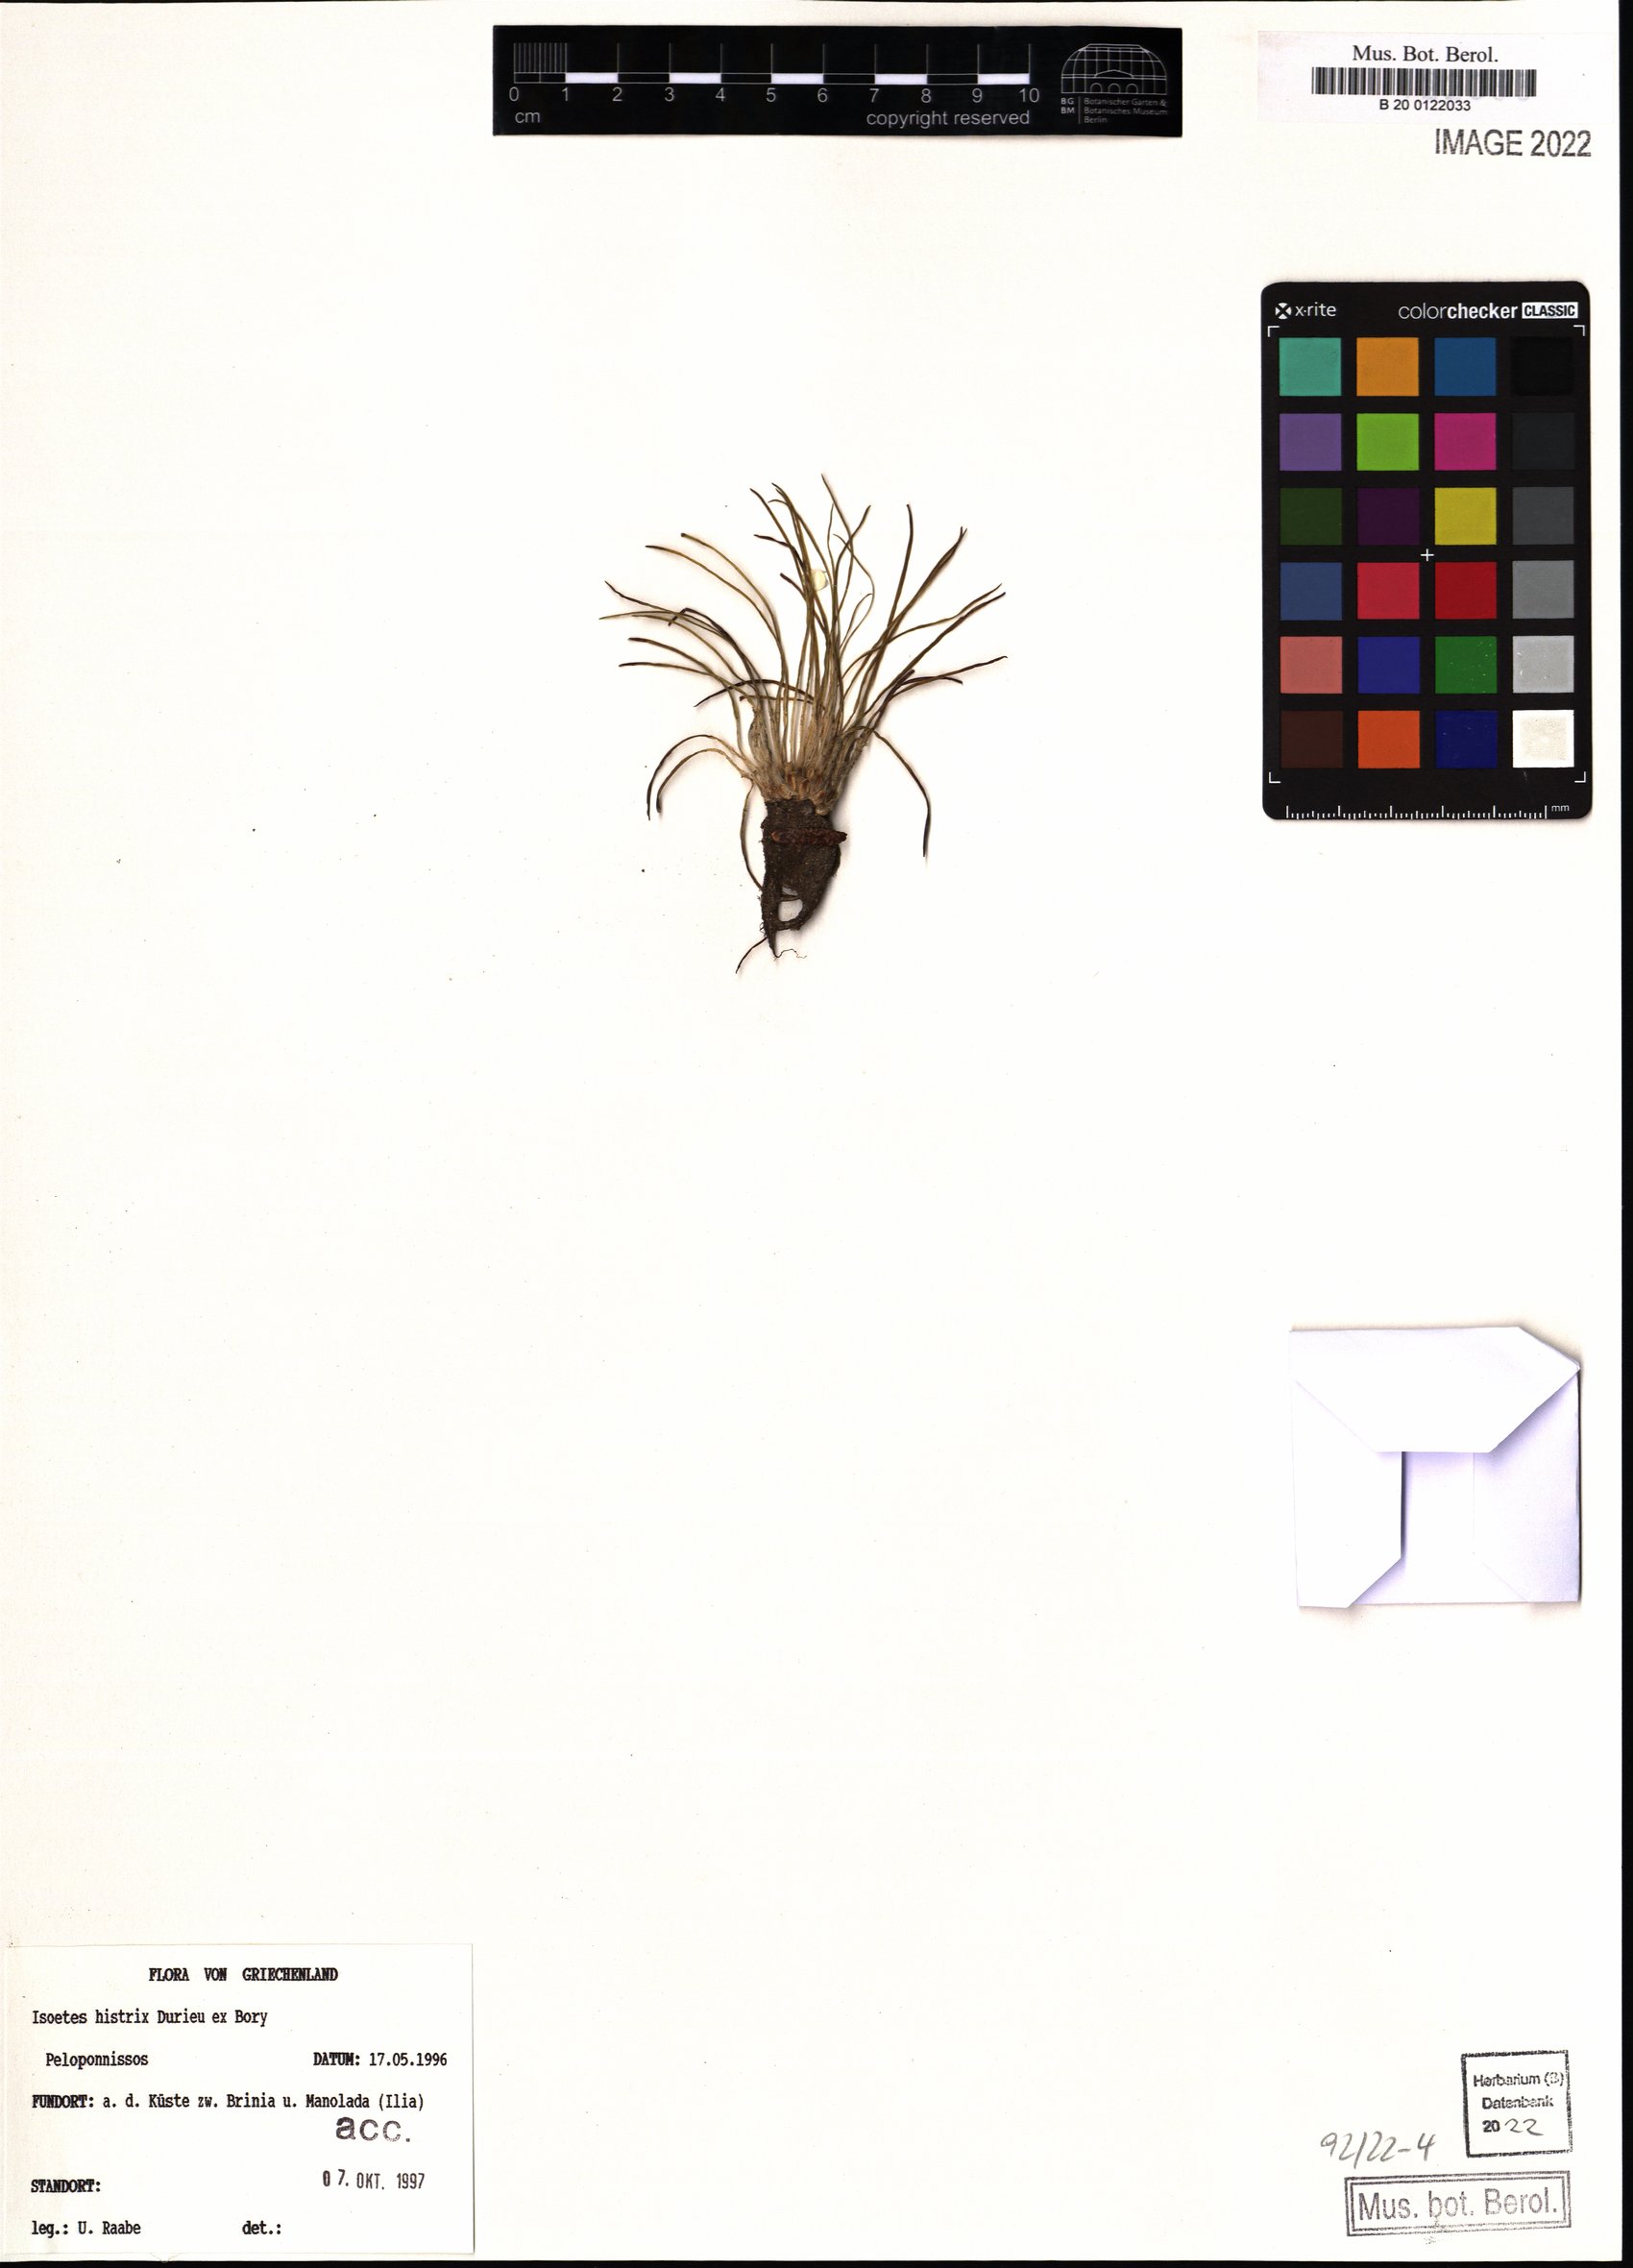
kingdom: Plantae
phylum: Tracheophyta
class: Lycopodiopsida
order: Isoetales
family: Isoetaceae
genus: Isoetes
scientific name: Isoetes histrix
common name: Land quillwort
